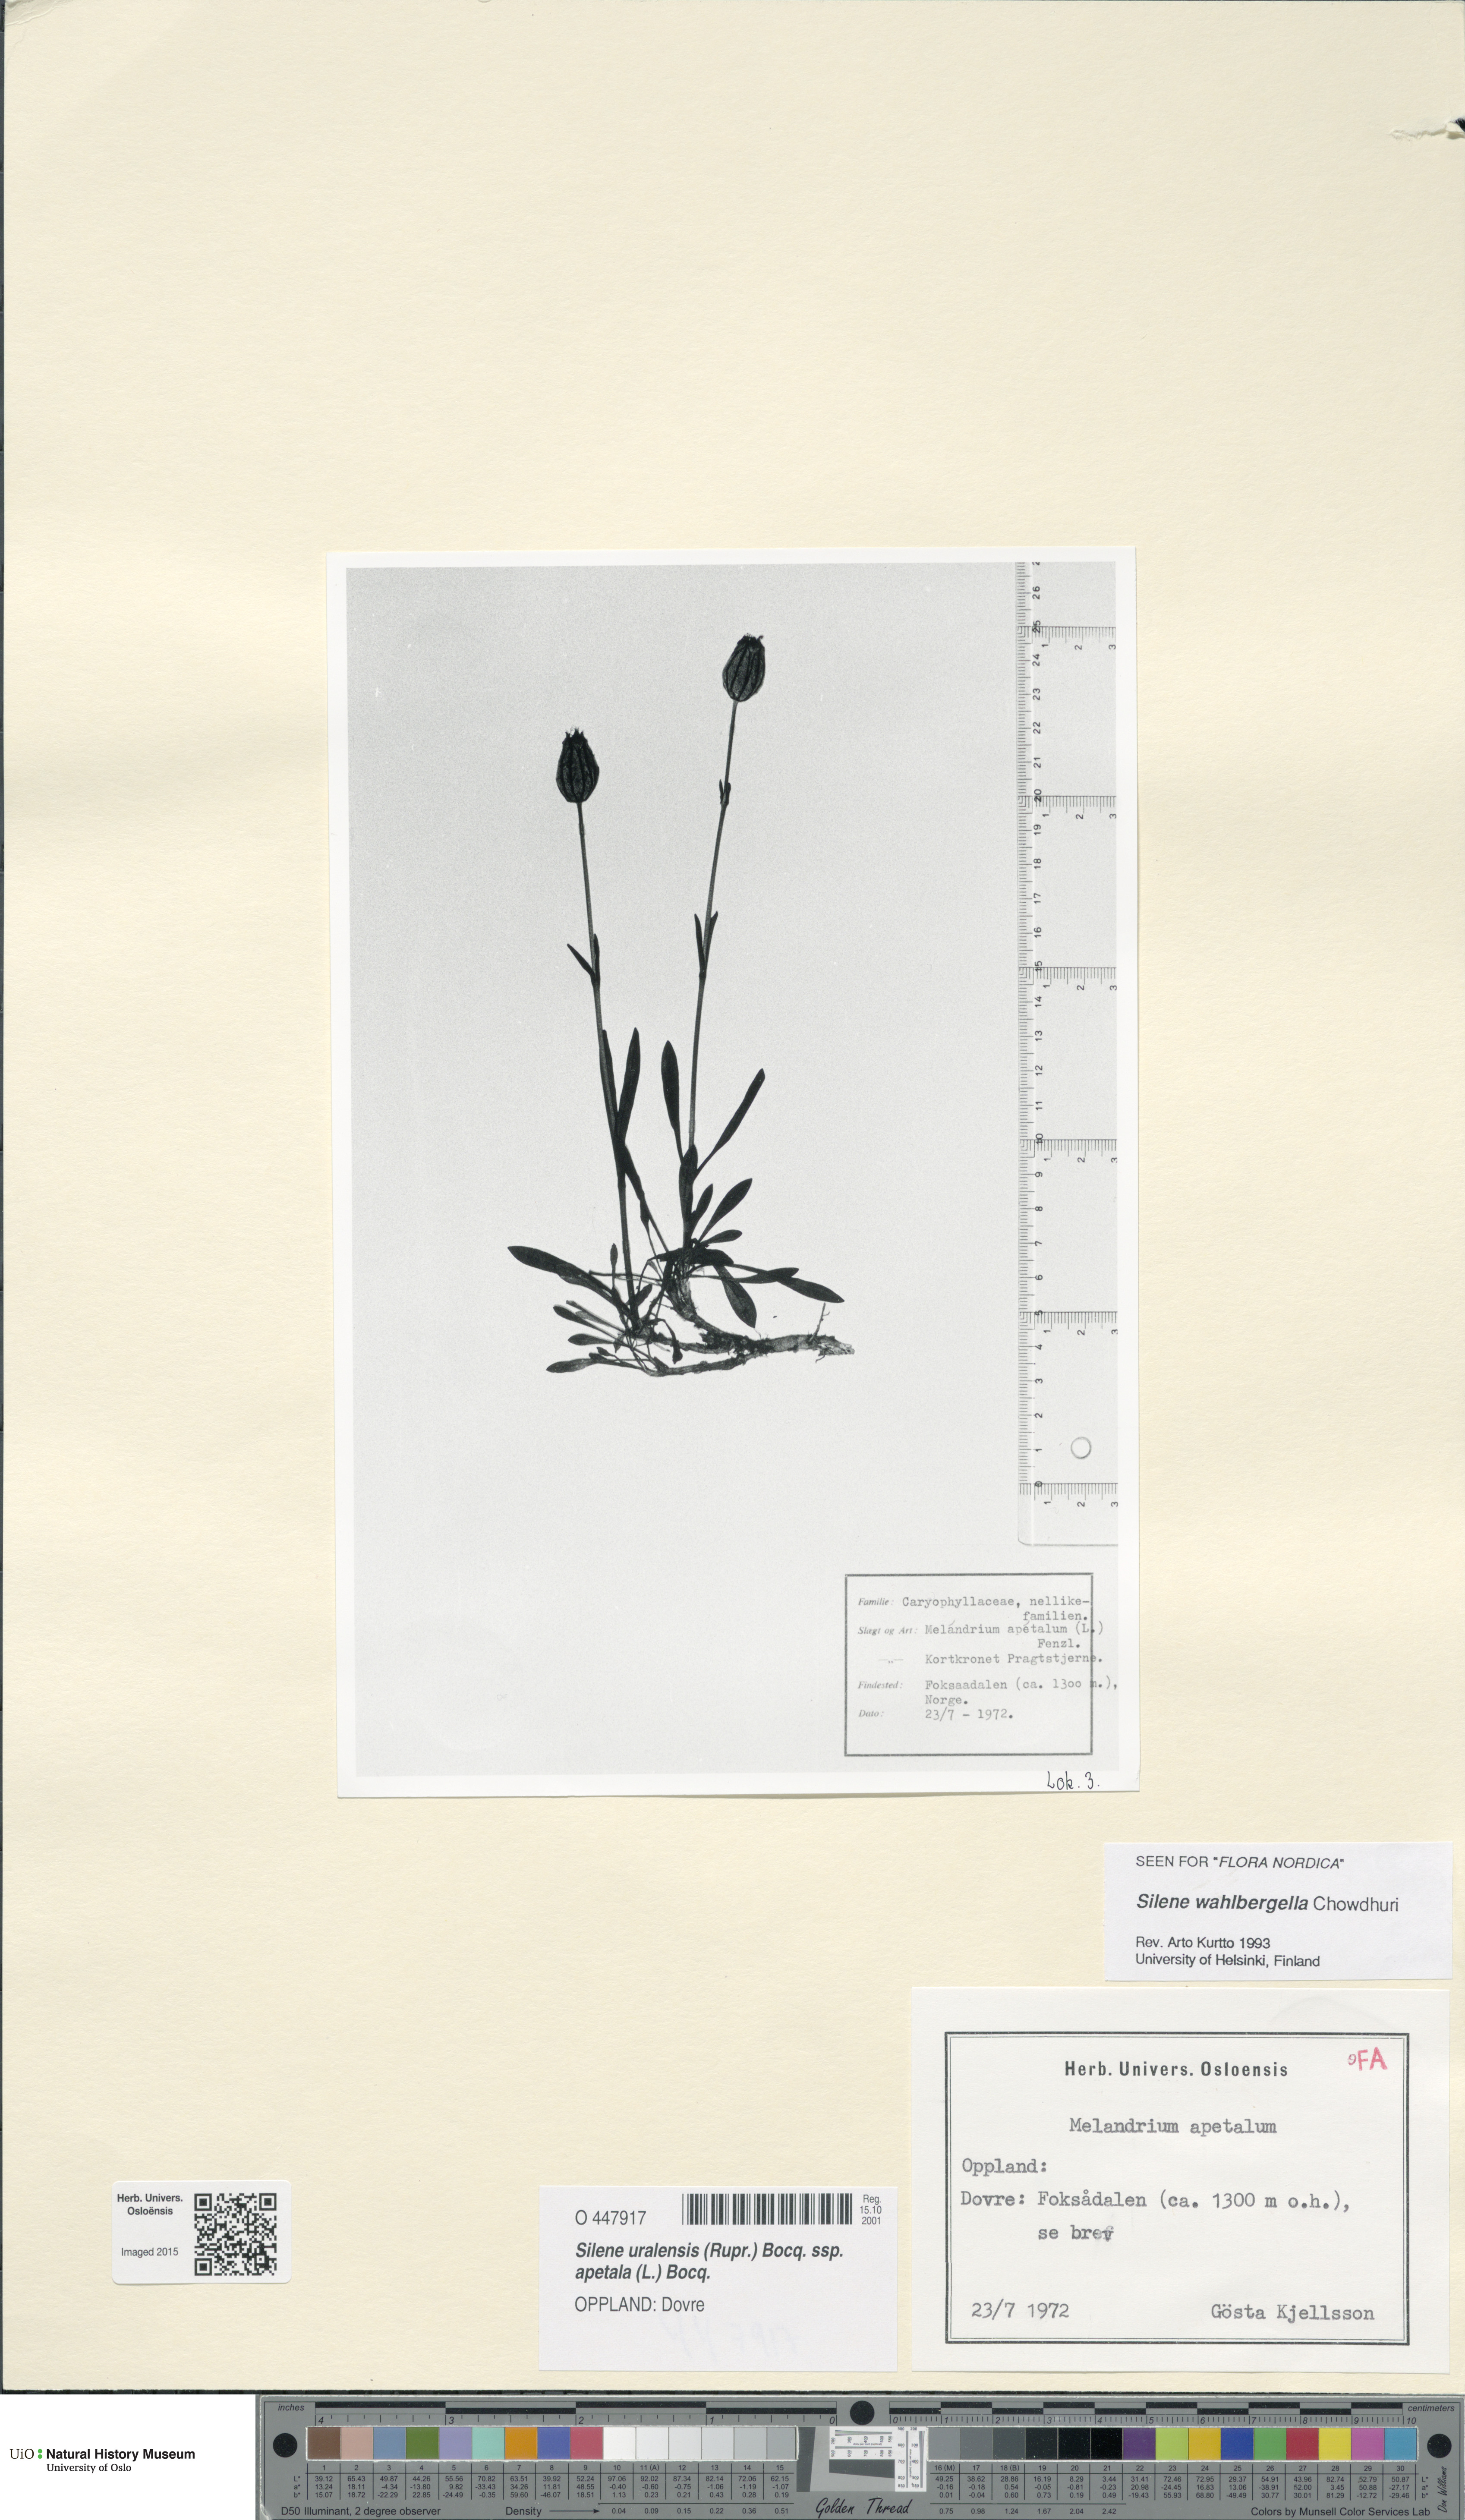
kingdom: Plantae
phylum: Tracheophyta
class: Magnoliopsida
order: Caryophyllales
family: Caryophyllaceae
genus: Silene
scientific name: Silene wahlbergella
